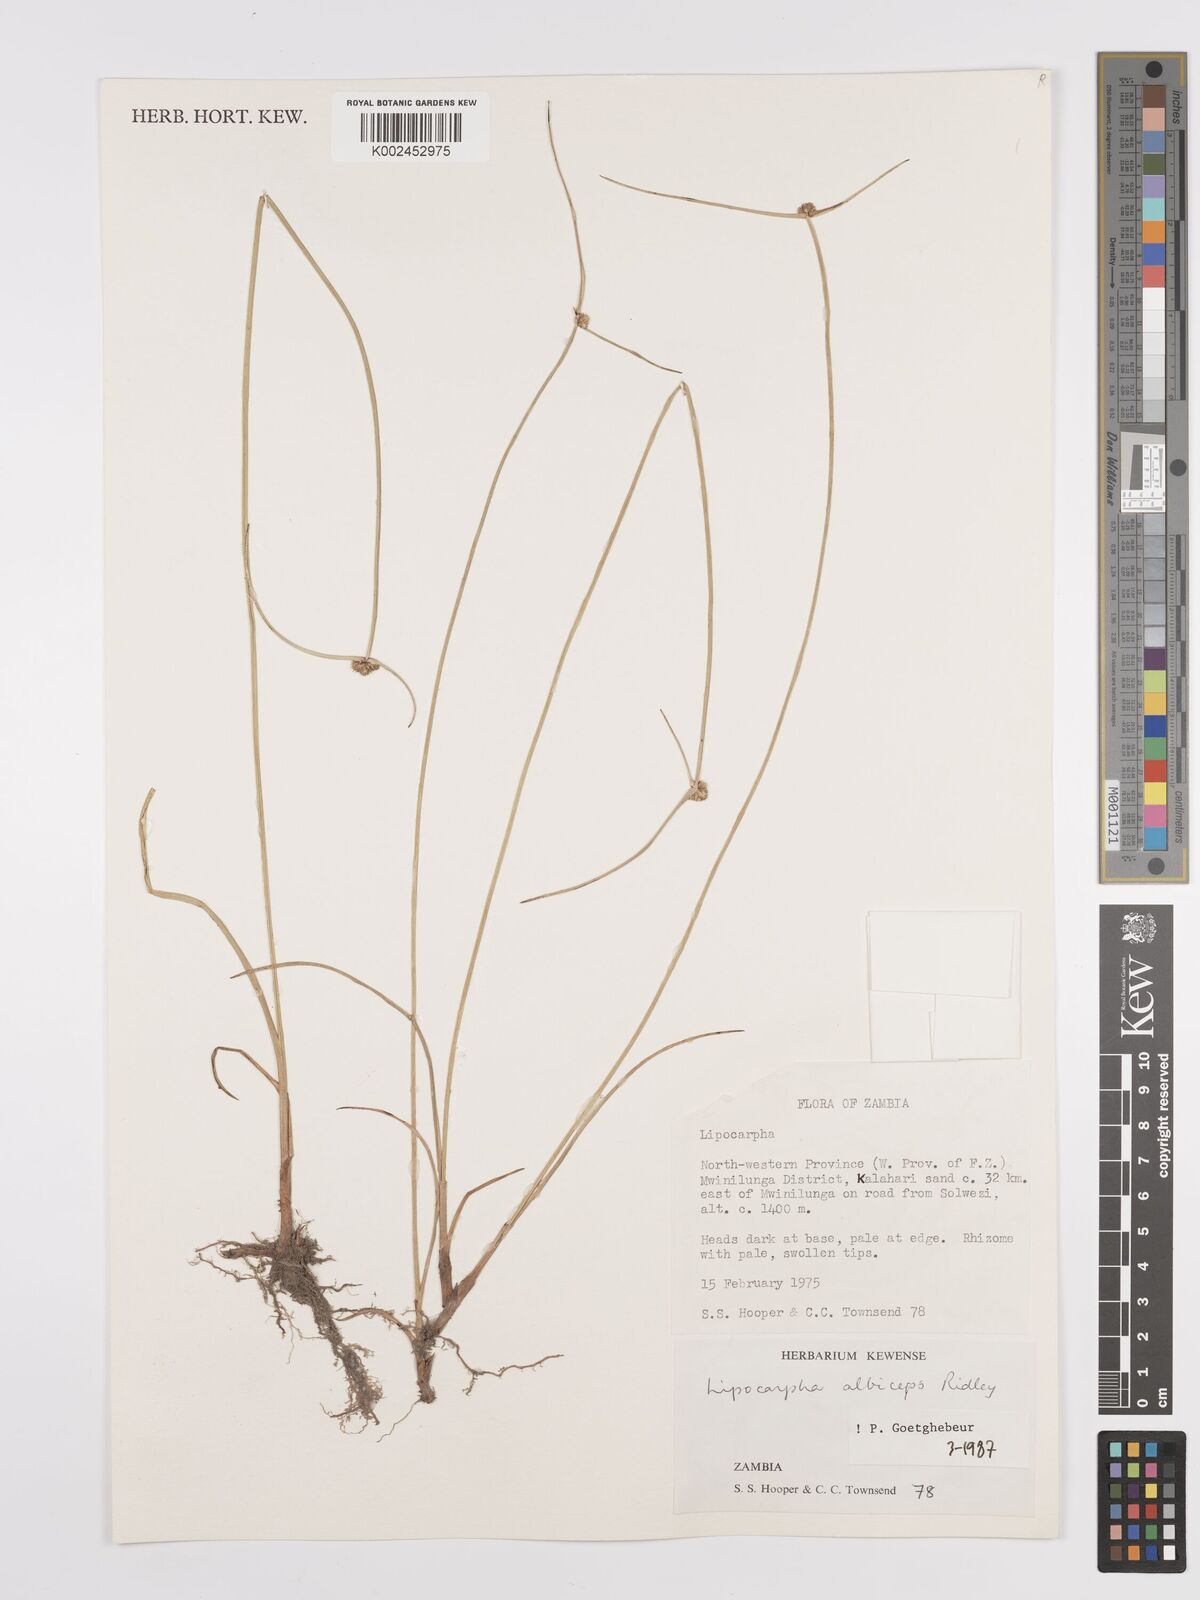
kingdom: Plantae
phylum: Tracheophyta
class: Liliopsida
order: Poales
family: Cyperaceae
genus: Cyperus
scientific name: Cyperus albiceps
